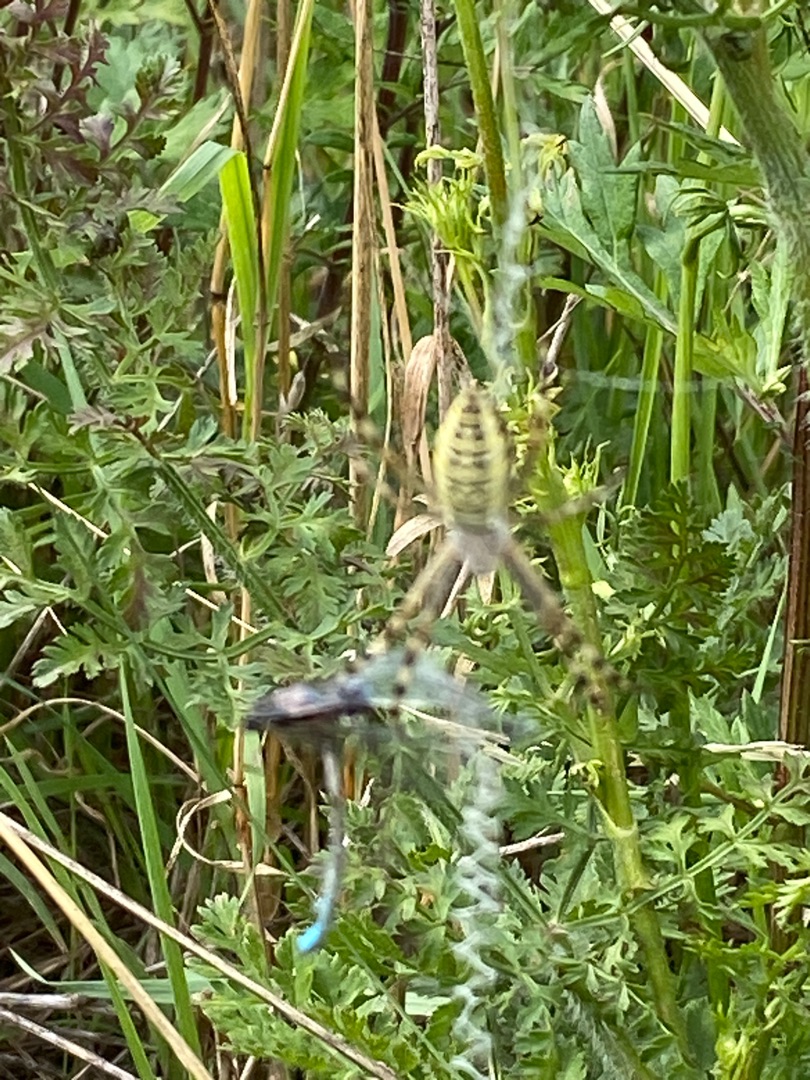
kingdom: Animalia
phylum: Arthropoda
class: Arachnida
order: Araneae
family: Araneidae
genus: Argiope
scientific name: Argiope bruennichi
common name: Hvepseedderkop
